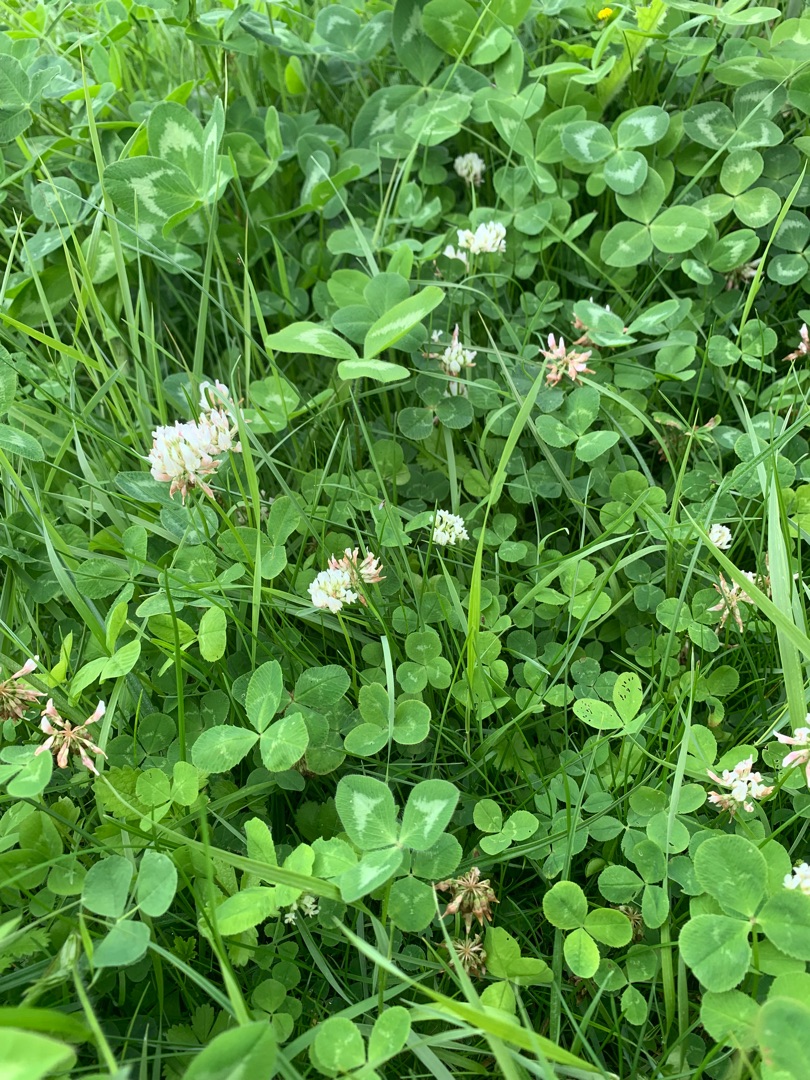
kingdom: Plantae
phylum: Tracheophyta
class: Magnoliopsida
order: Fabales
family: Fabaceae
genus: Trifolium
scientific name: Trifolium repens
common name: Hvid-kløver
